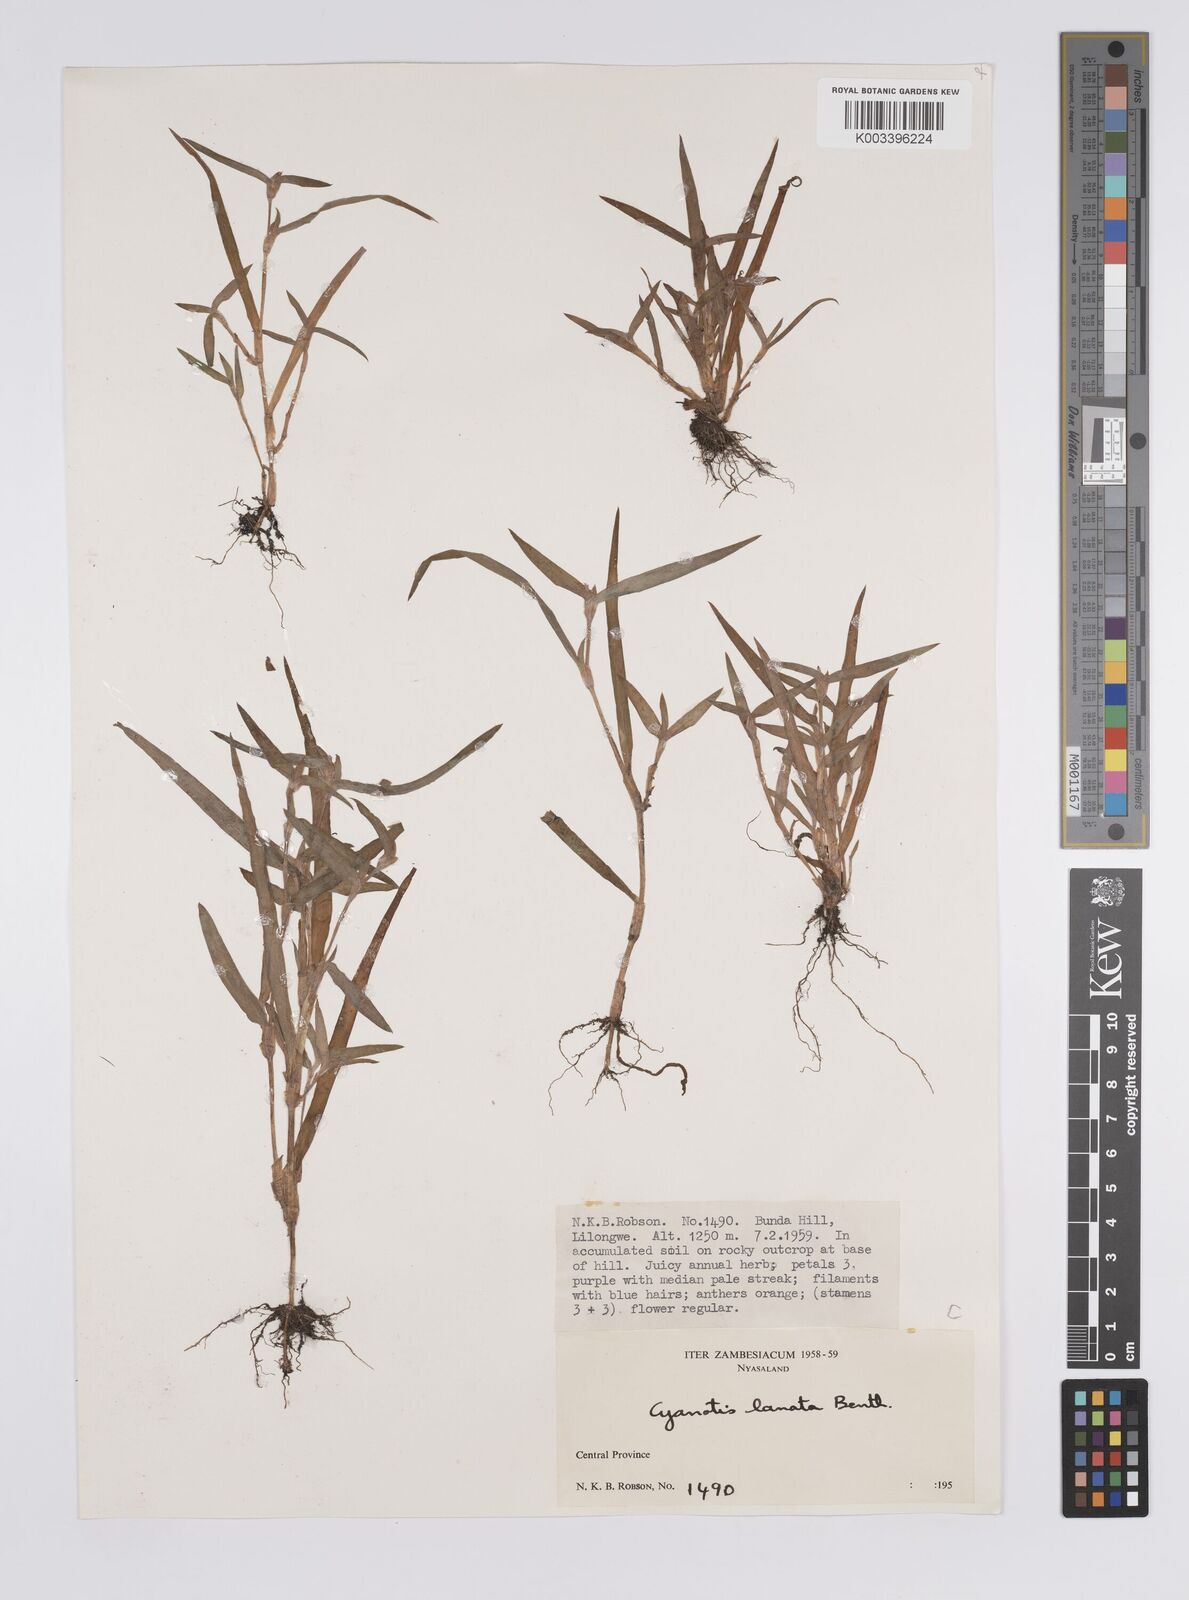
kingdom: Plantae
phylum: Tracheophyta
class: Liliopsida
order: Commelinales
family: Commelinaceae
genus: Cyanotis
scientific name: Cyanotis lanata
